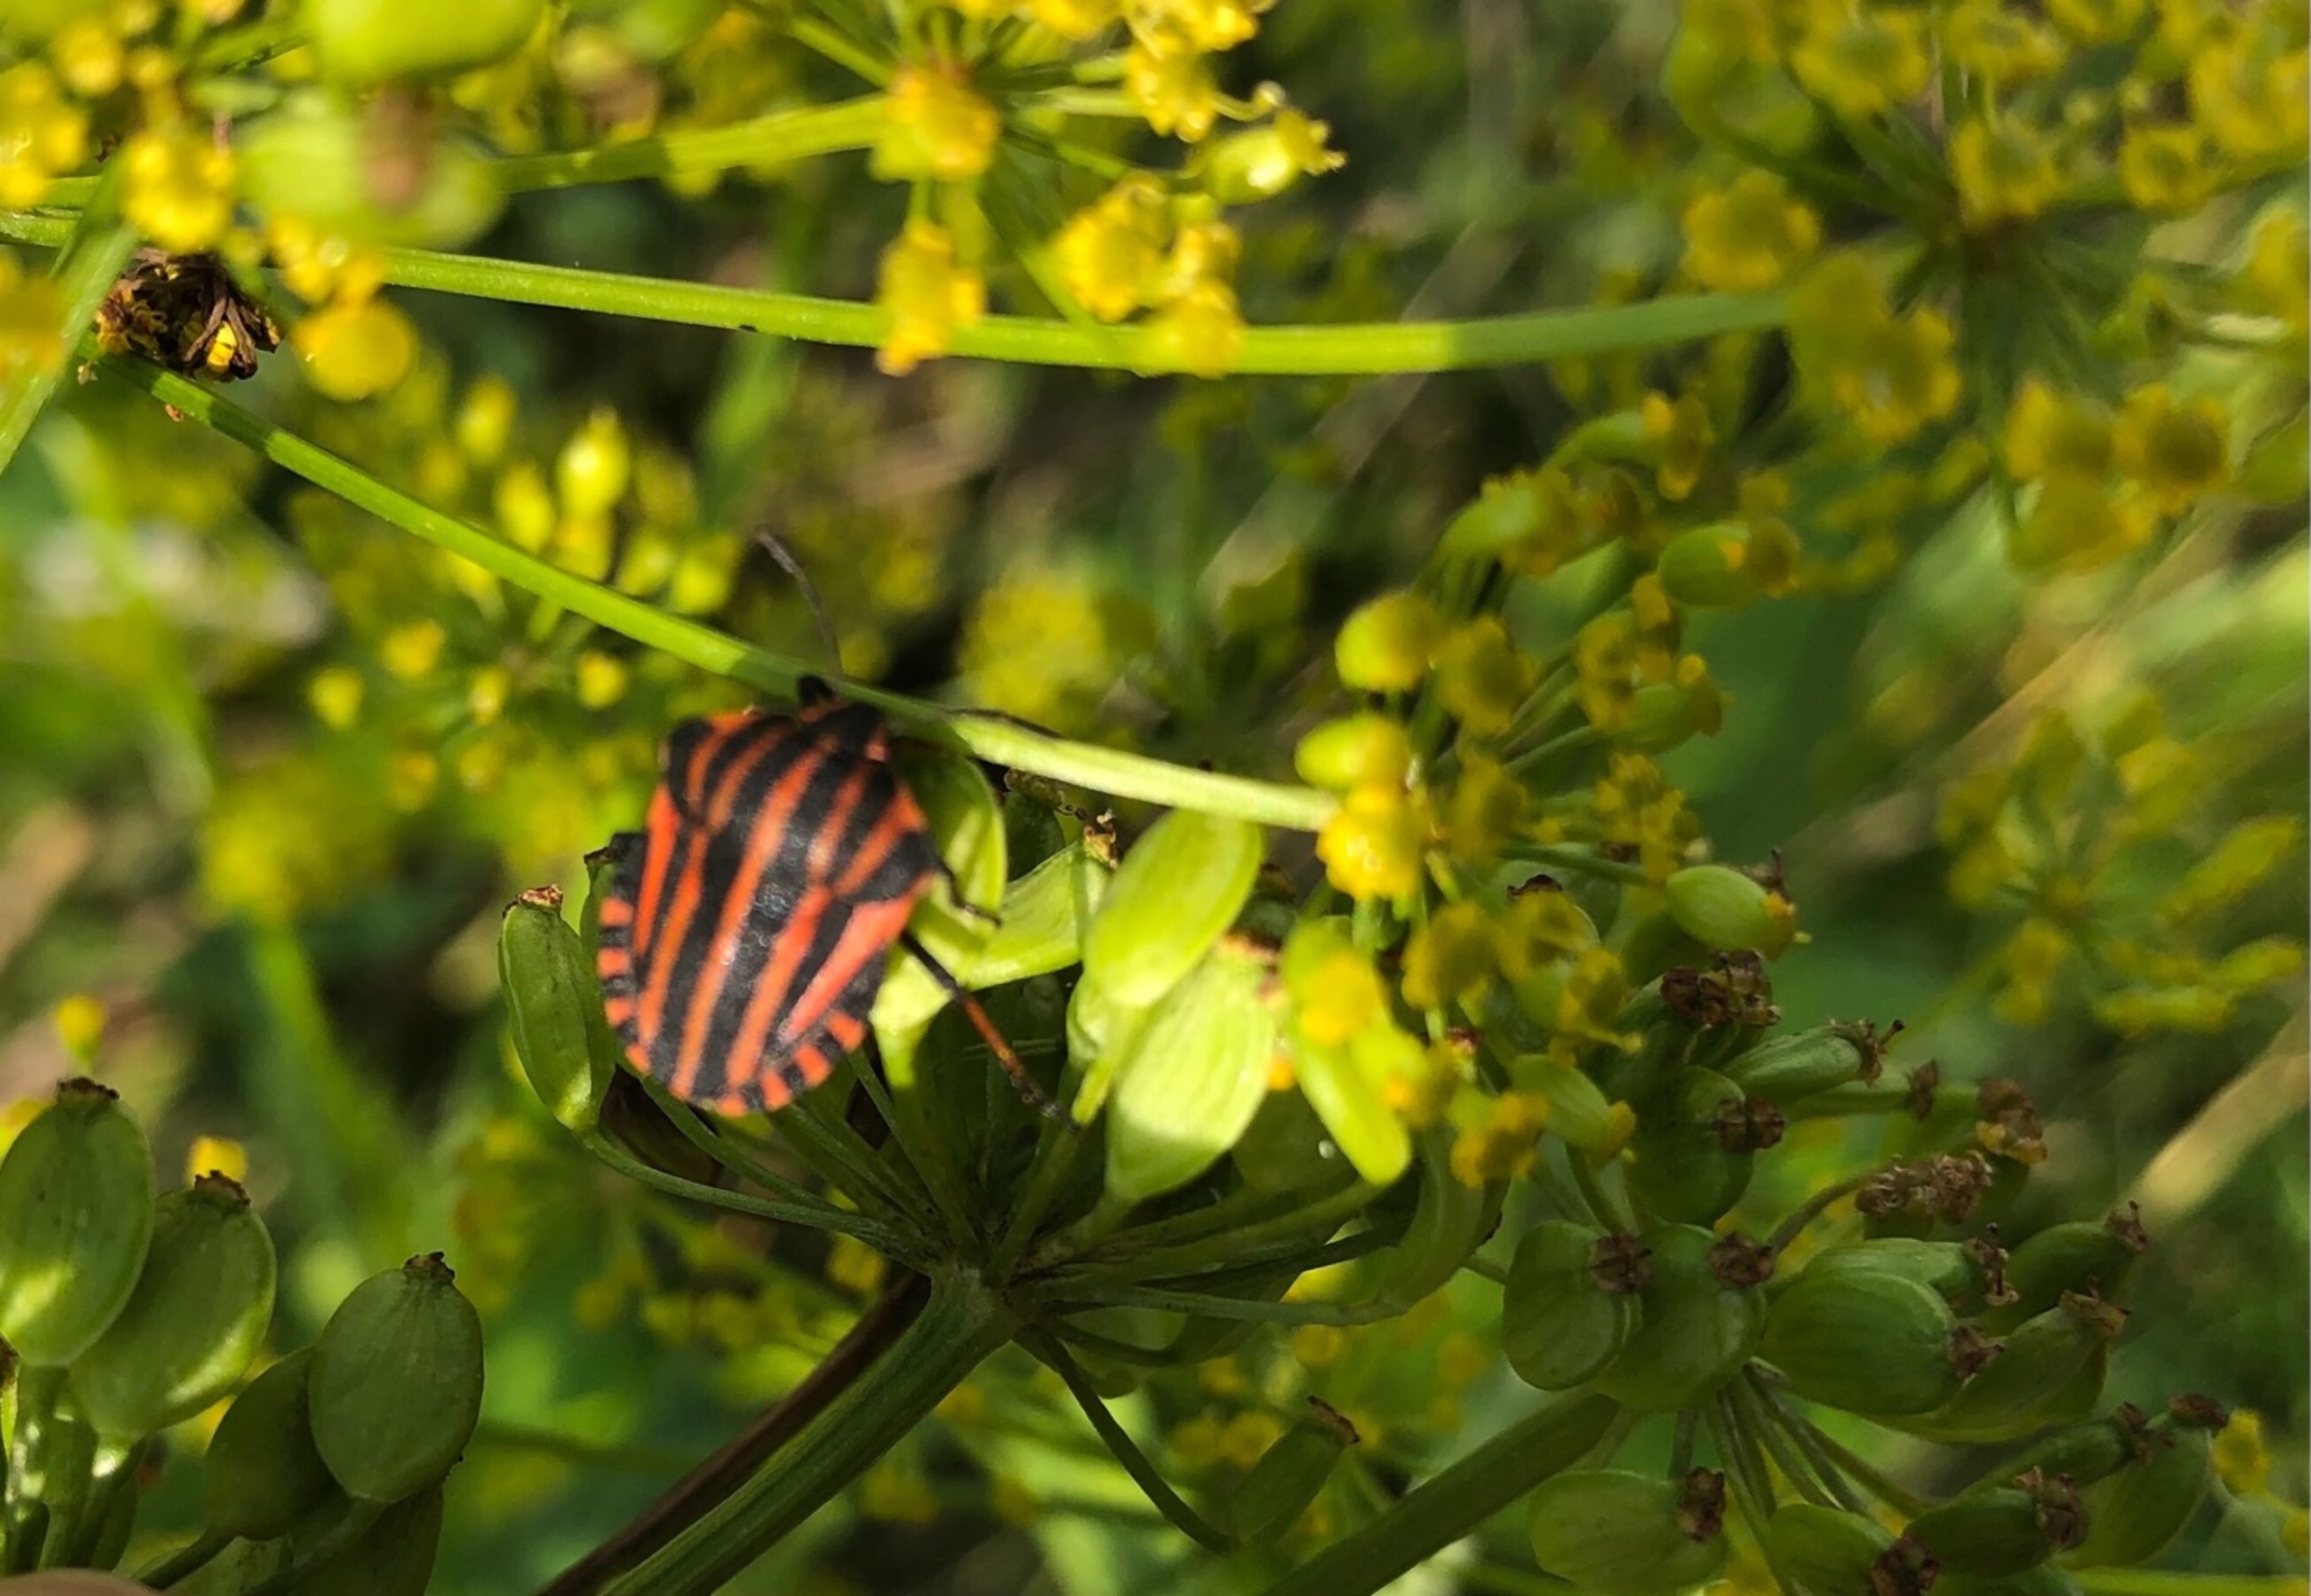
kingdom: Animalia
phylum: Arthropoda
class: Insecta
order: Hemiptera
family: Pentatomidae
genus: Graphosoma
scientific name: Graphosoma italicum
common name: Stribetæge
